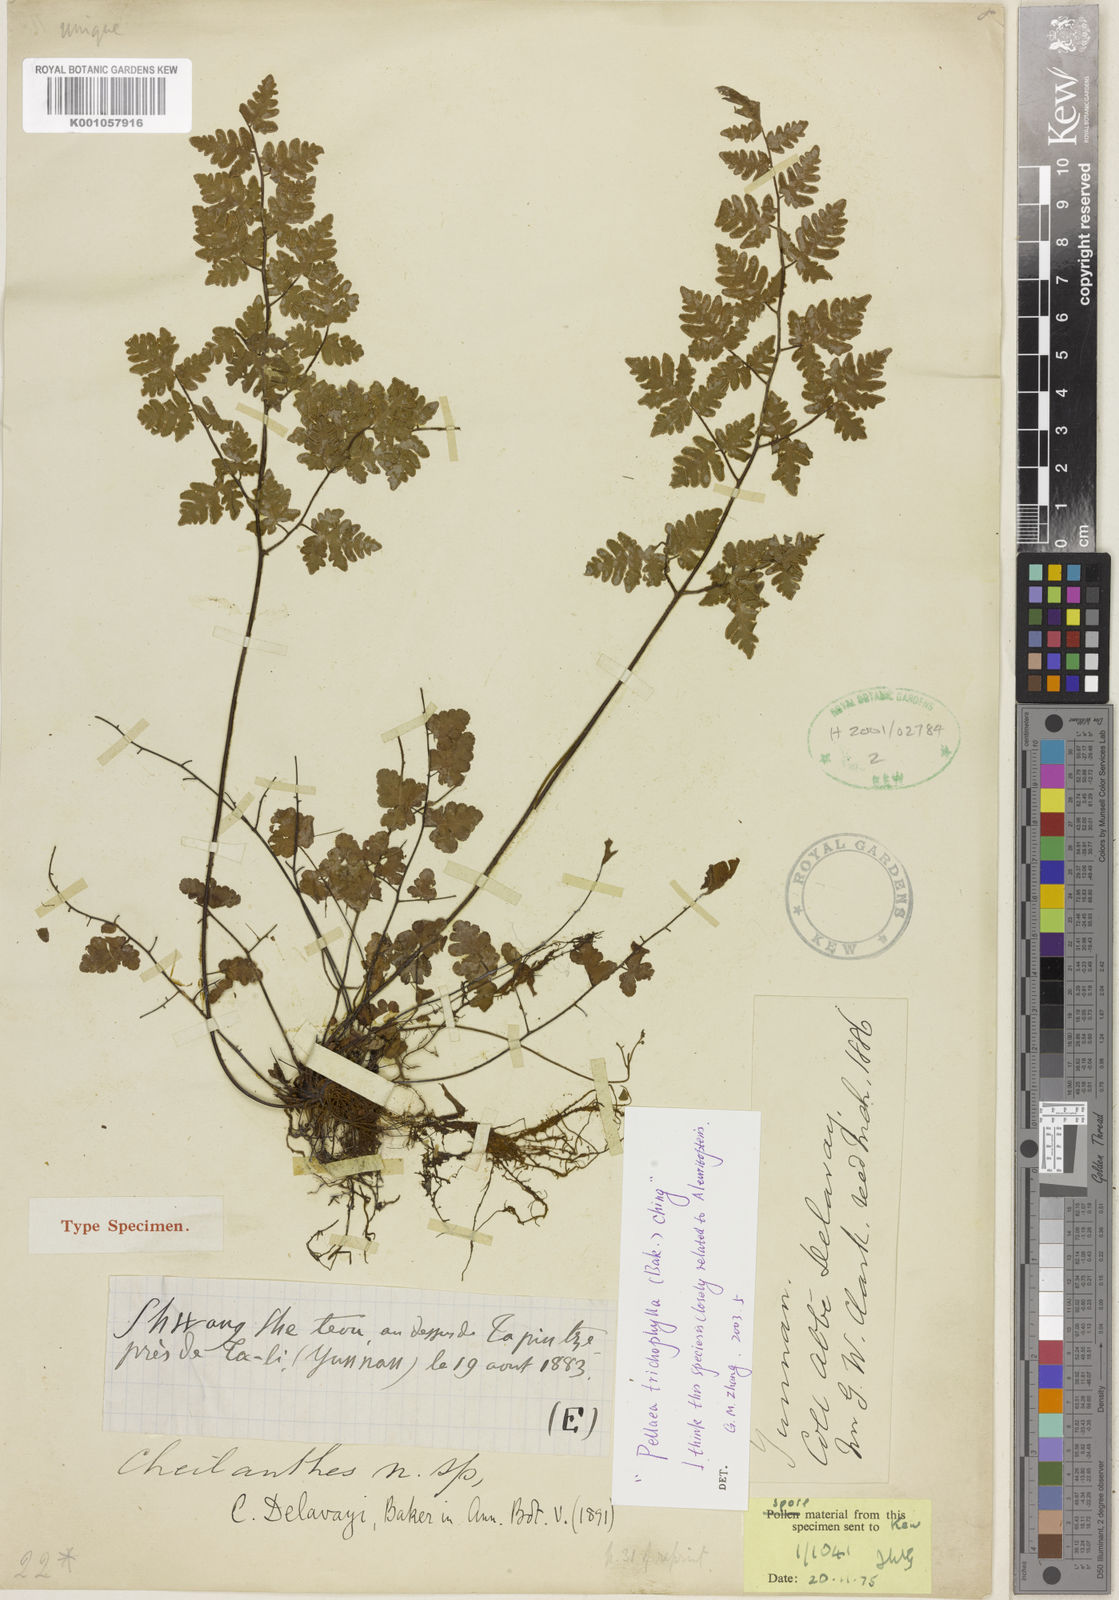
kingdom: Plantae
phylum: Tracheophyta
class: Polypodiopsida
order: Polypodiales
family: Pteridaceae
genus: Oeosporangium
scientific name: Oeosporangium trichophyllum
